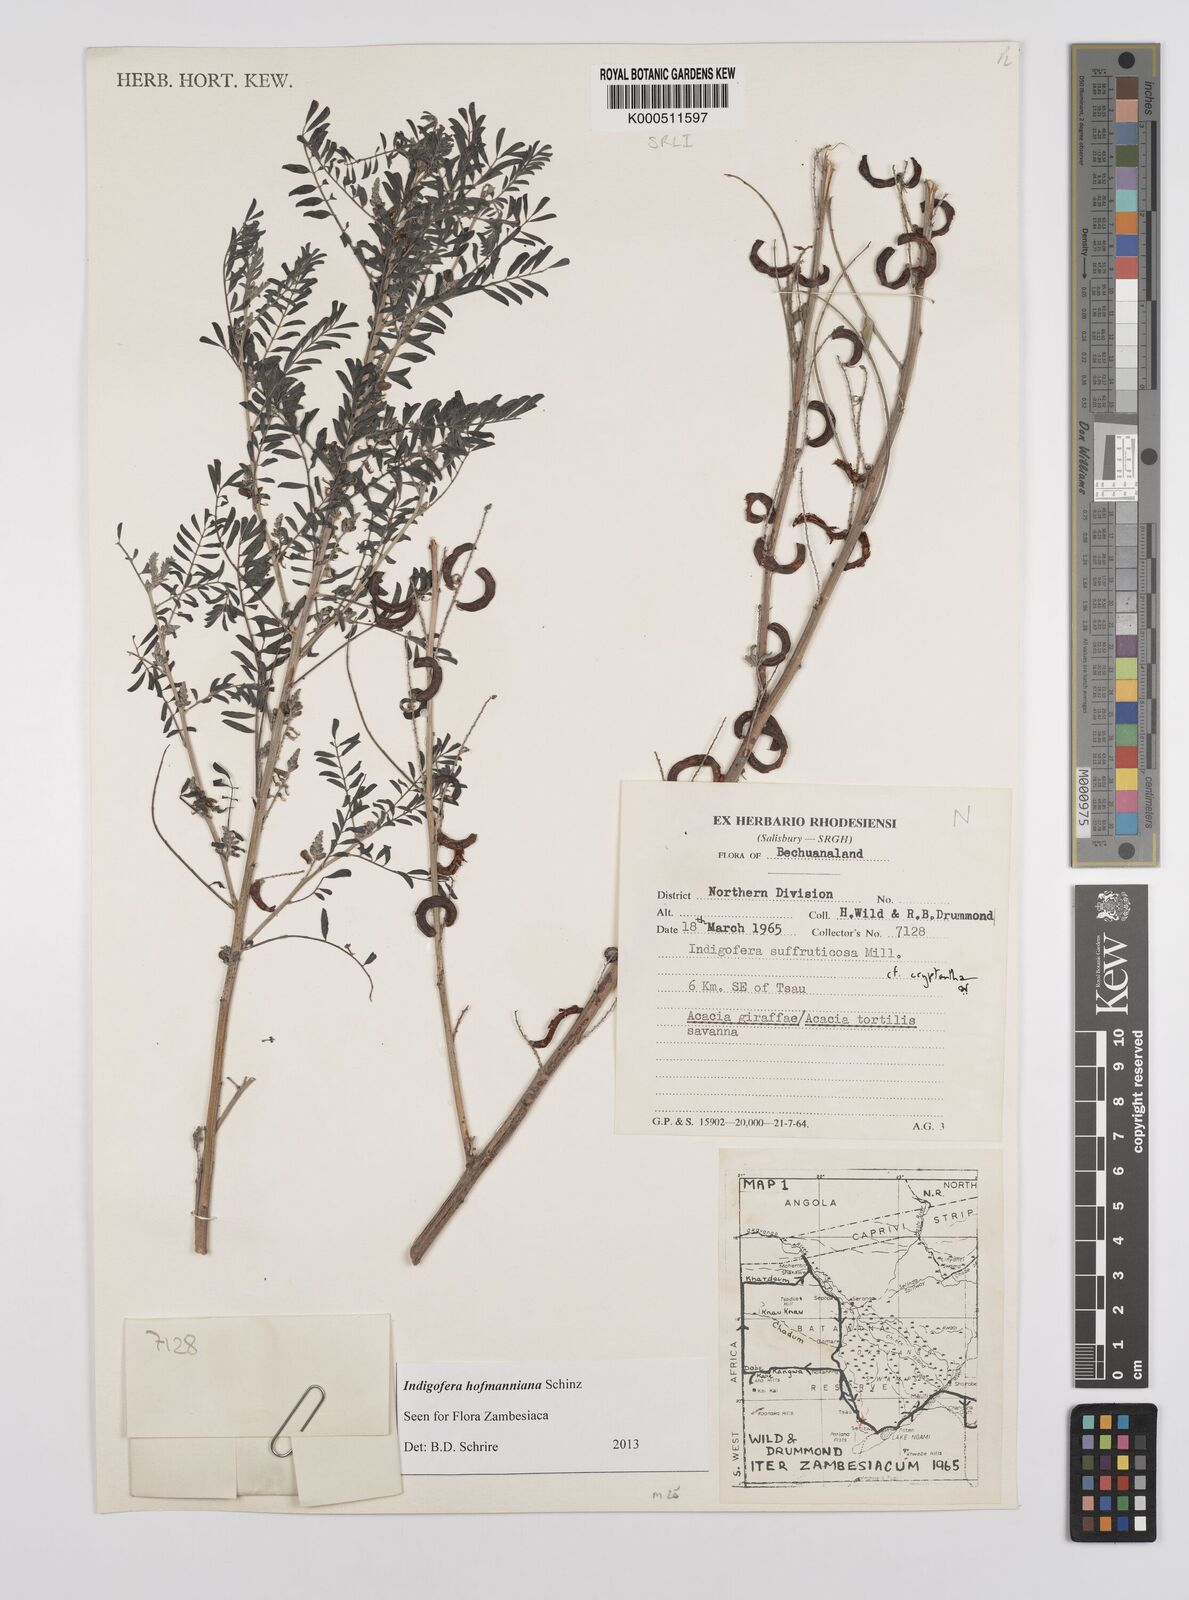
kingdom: Plantae
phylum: Tracheophyta
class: Magnoliopsida
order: Fabales
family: Fabaceae
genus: Indigofera
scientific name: Indigofera hofmanniana
